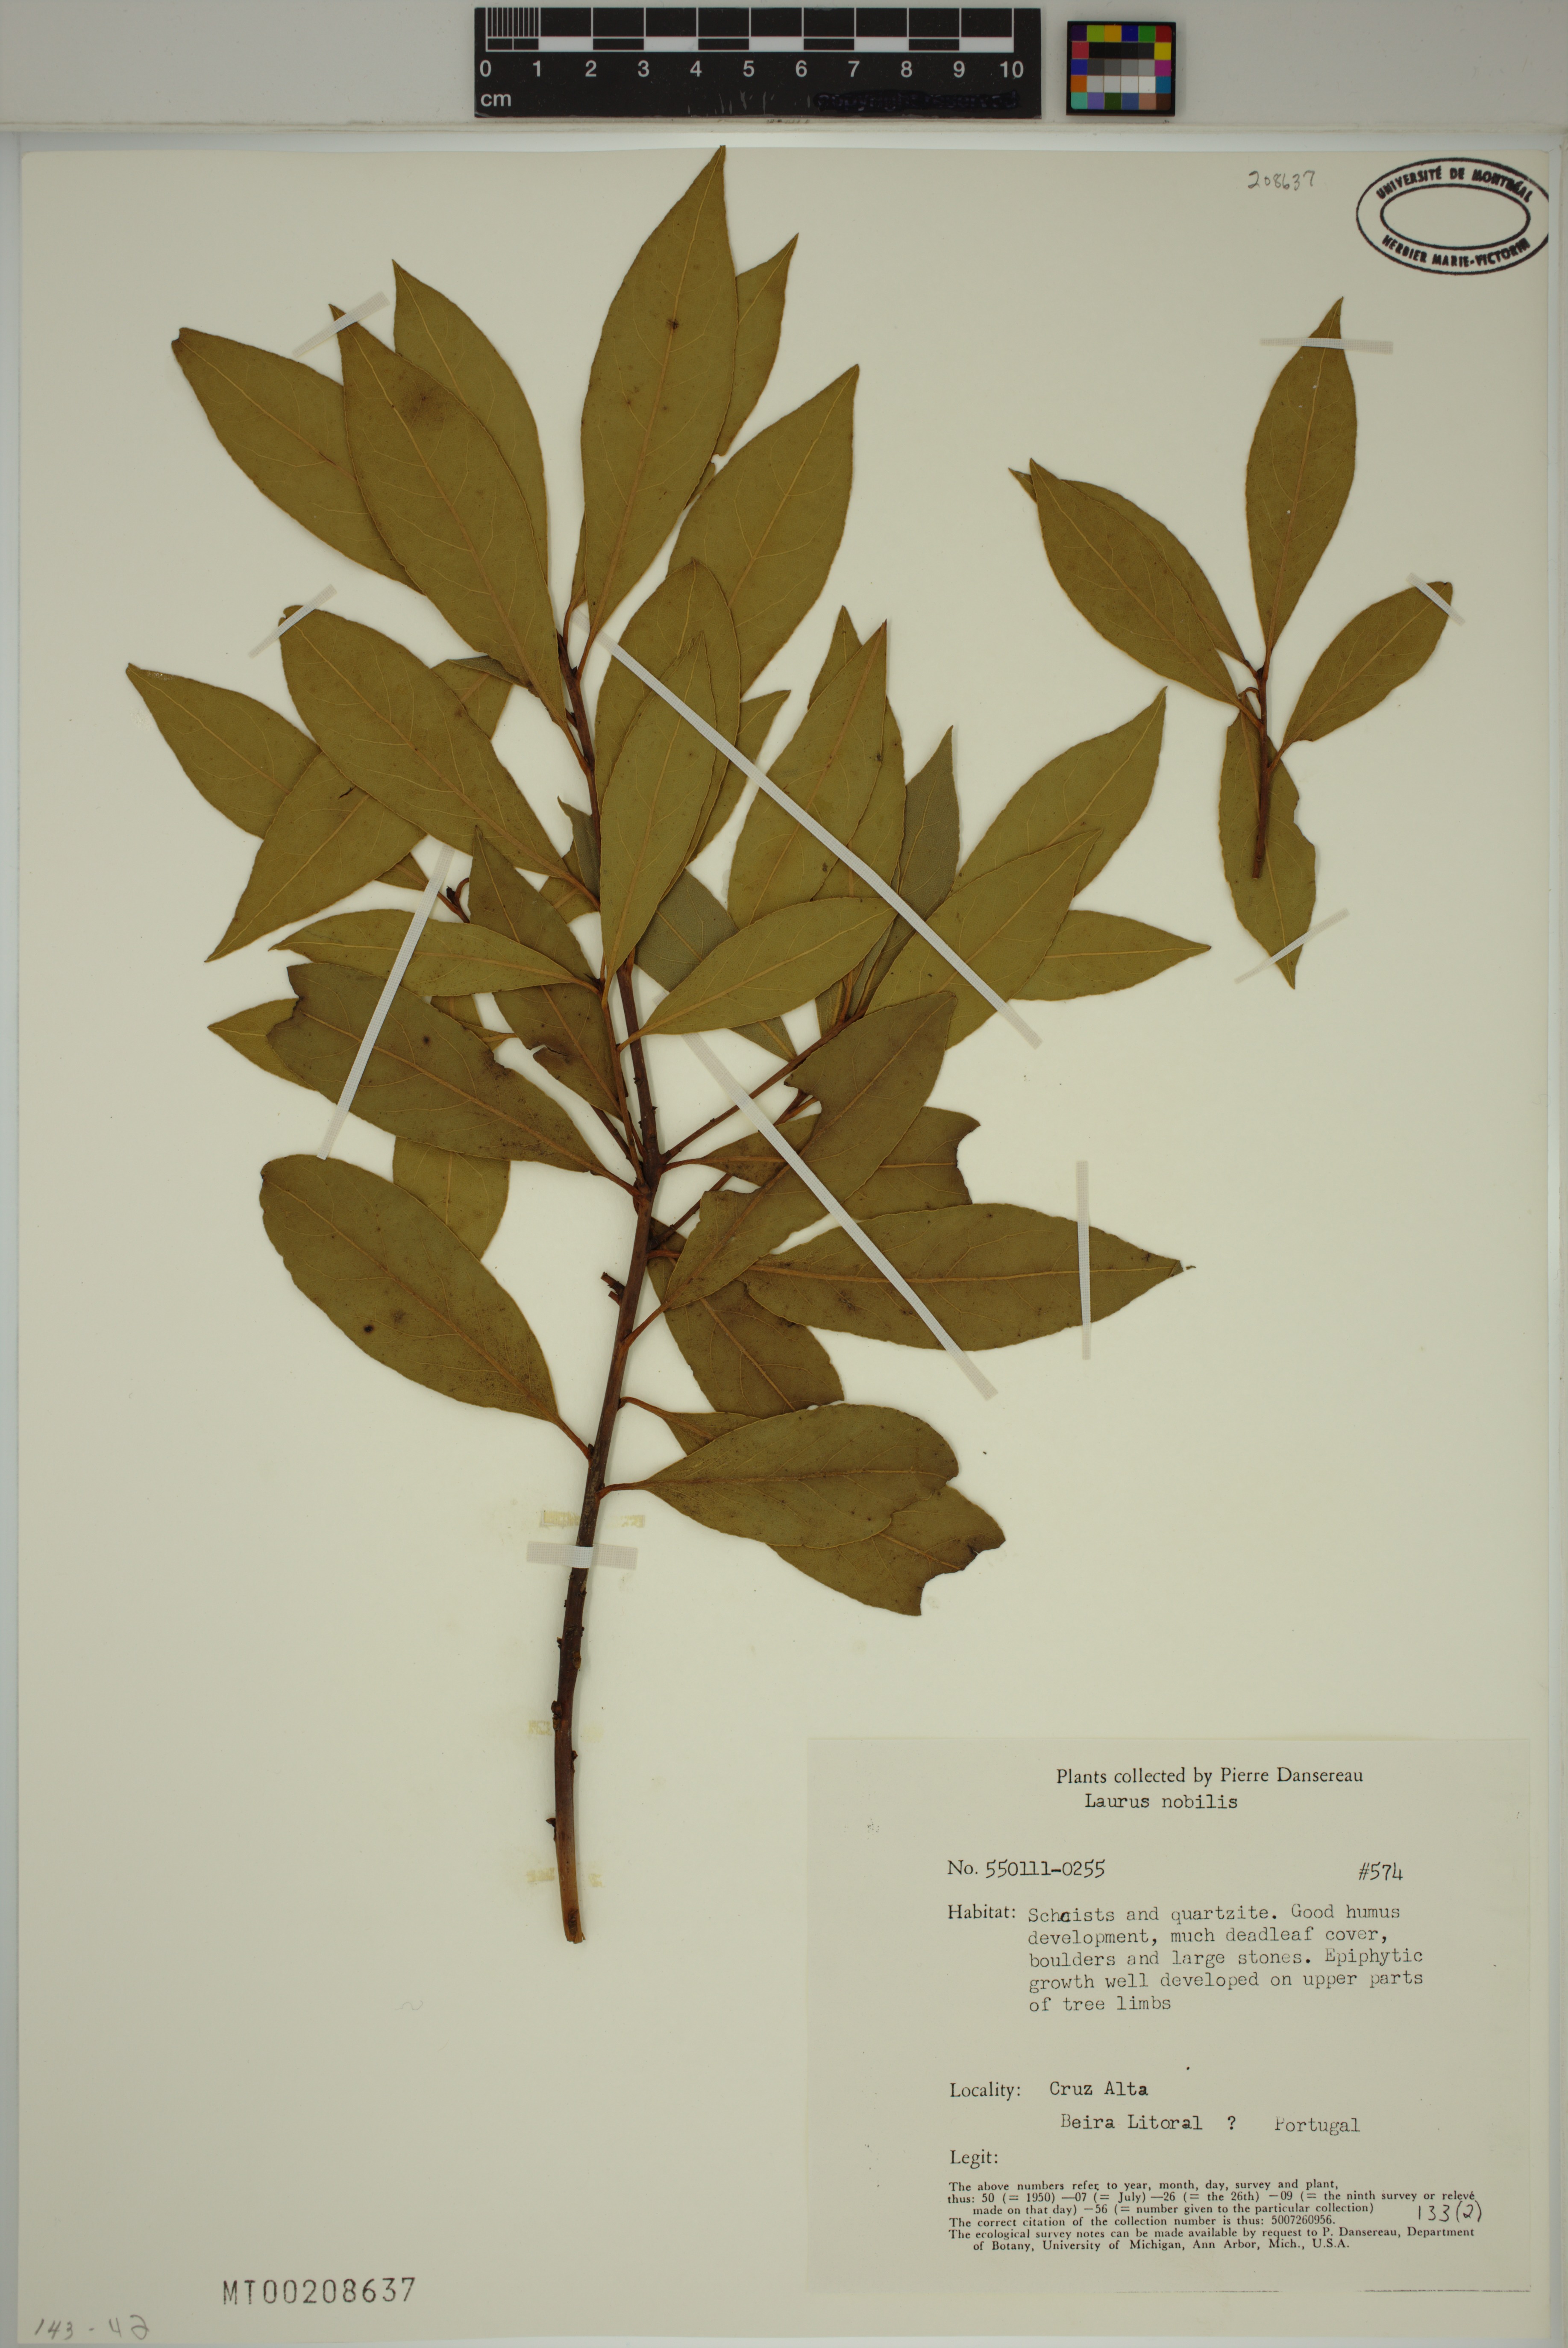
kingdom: Plantae
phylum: Tracheophyta
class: Magnoliopsida
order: Laurales
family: Lauraceae
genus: Laurus
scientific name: Laurus nobilis
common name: Bay
